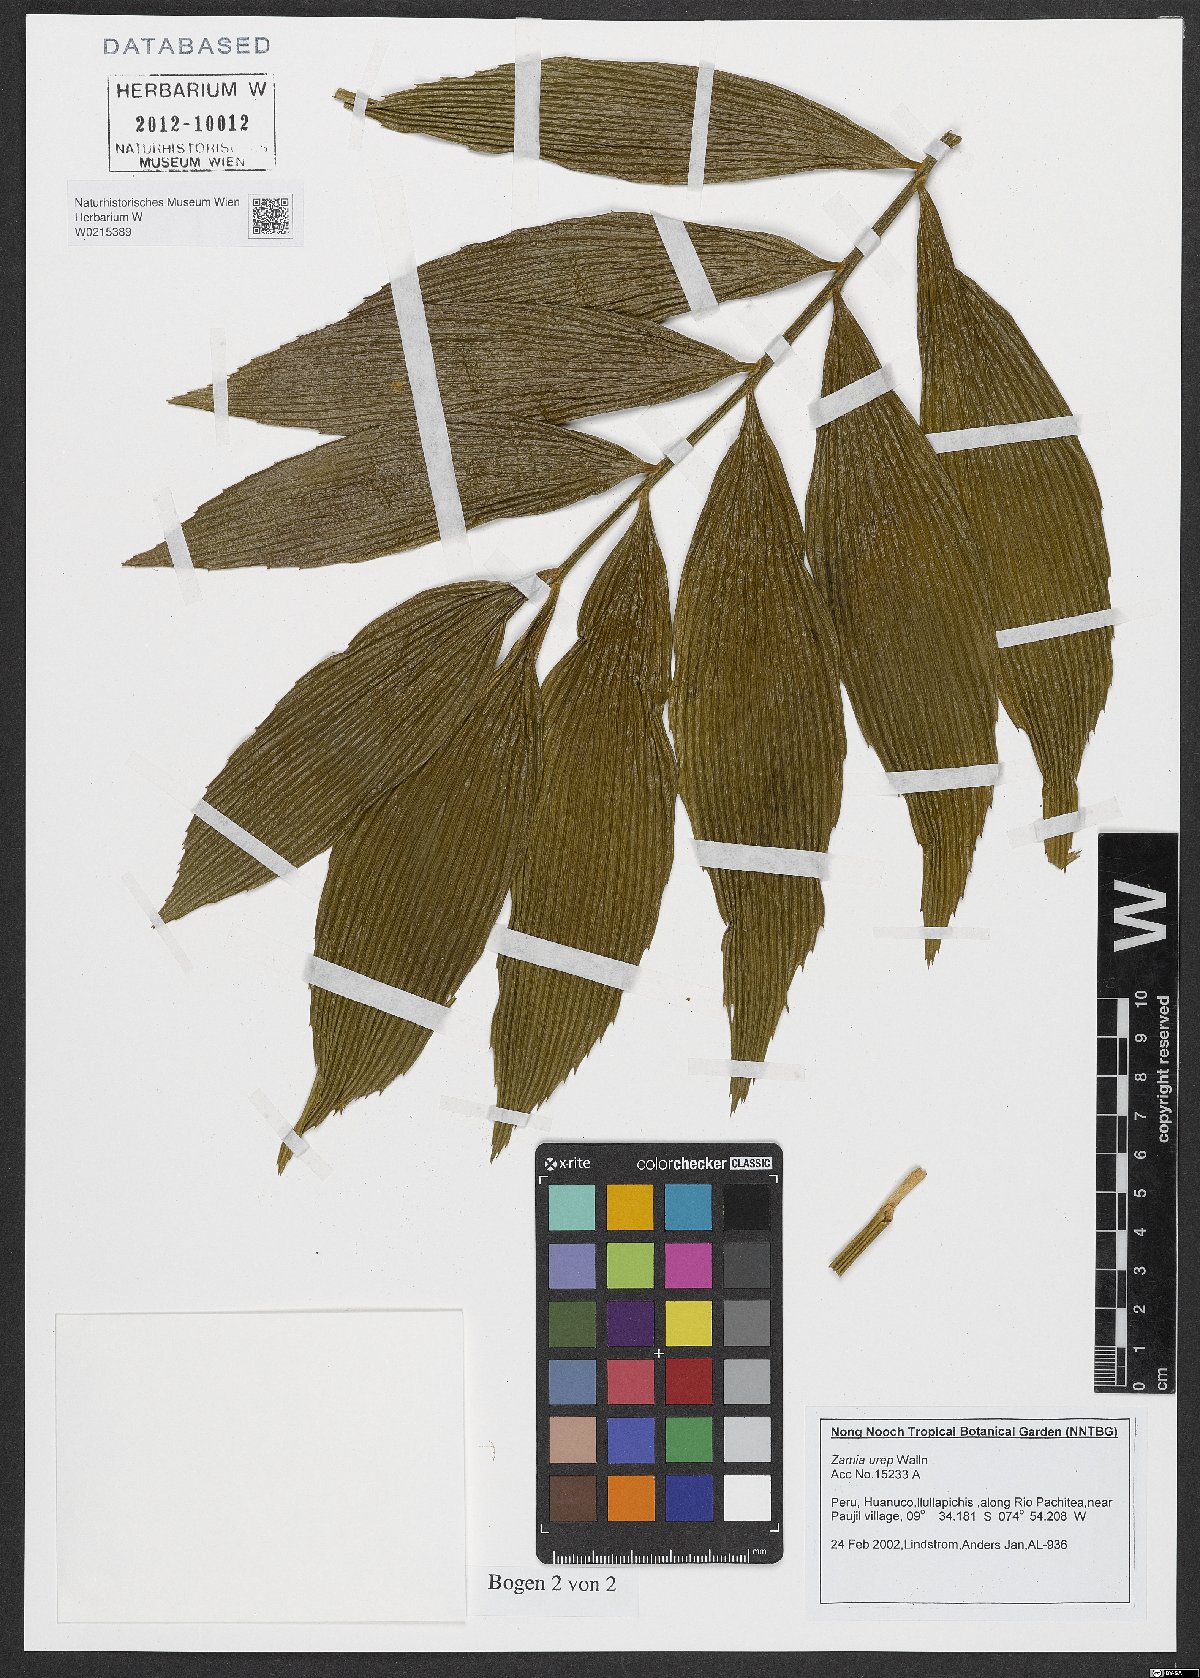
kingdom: Plantae
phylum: Tracheophyta
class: Cycadopsida
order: Cycadales
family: Zamiaceae
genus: Zamia
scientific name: Zamia urep
